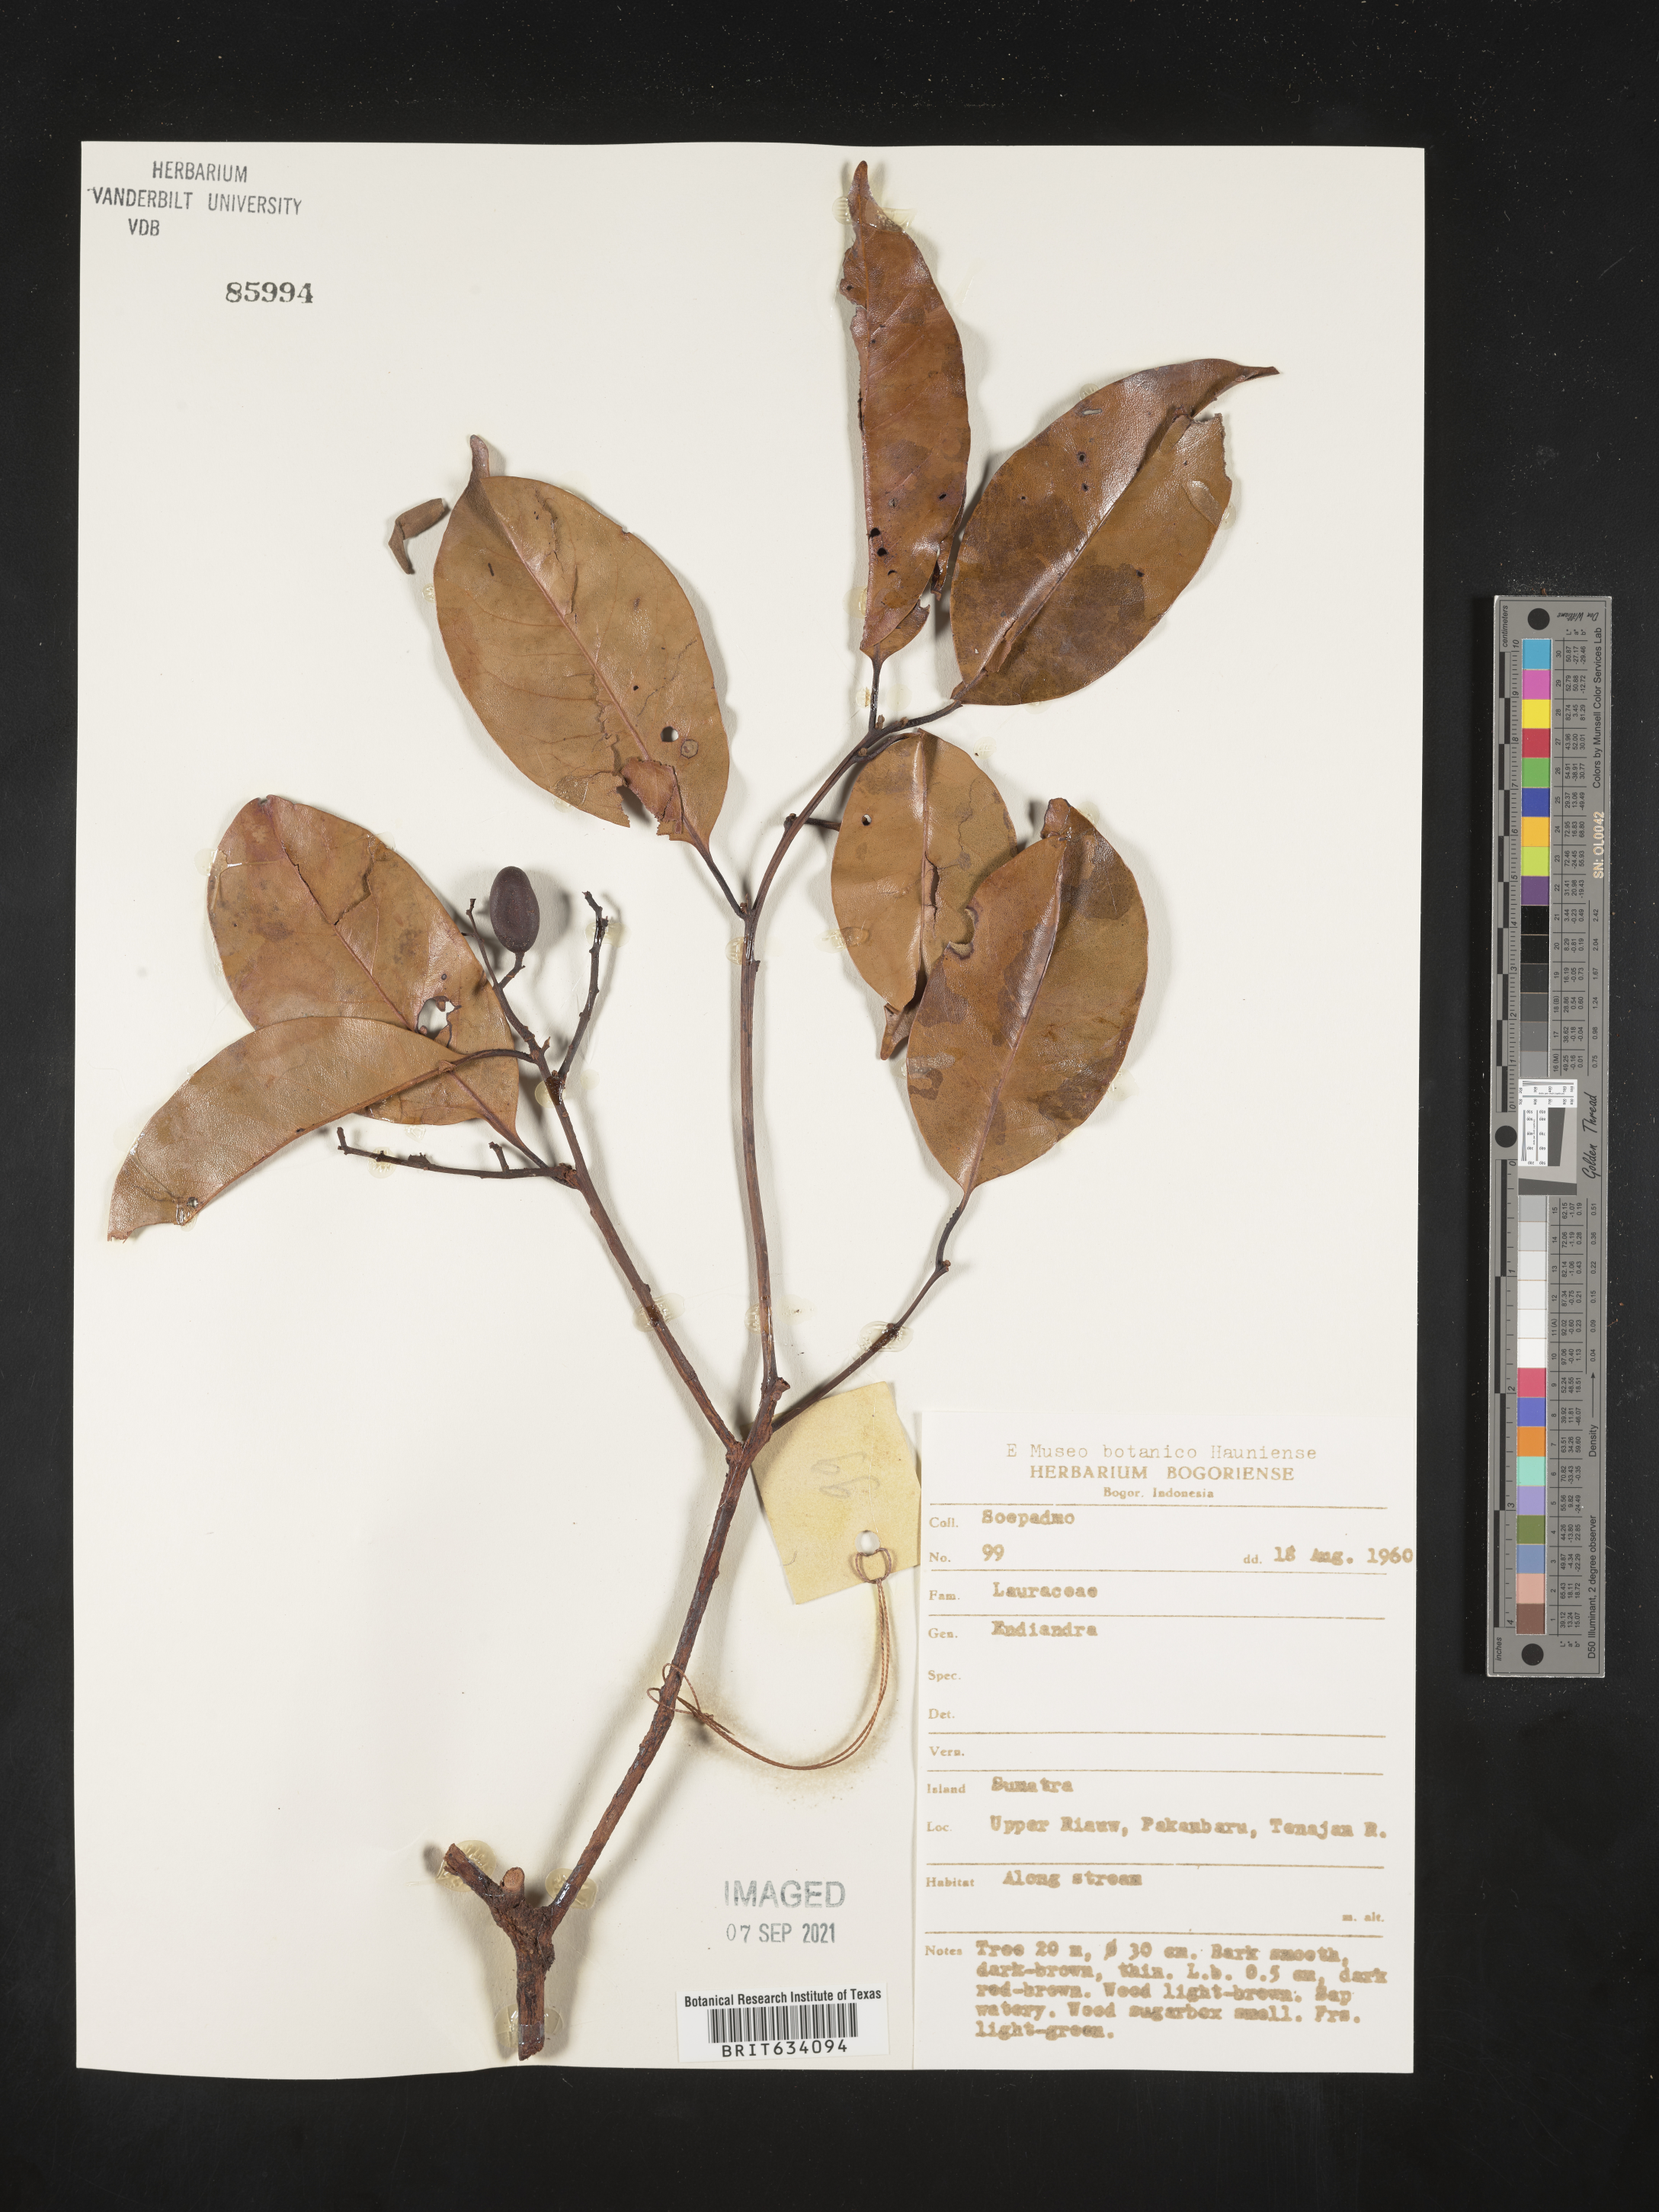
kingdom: Plantae
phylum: Tracheophyta
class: Magnoliopsida
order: Laurales
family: Lauraceae
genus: Endiandra
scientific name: Endiandra
